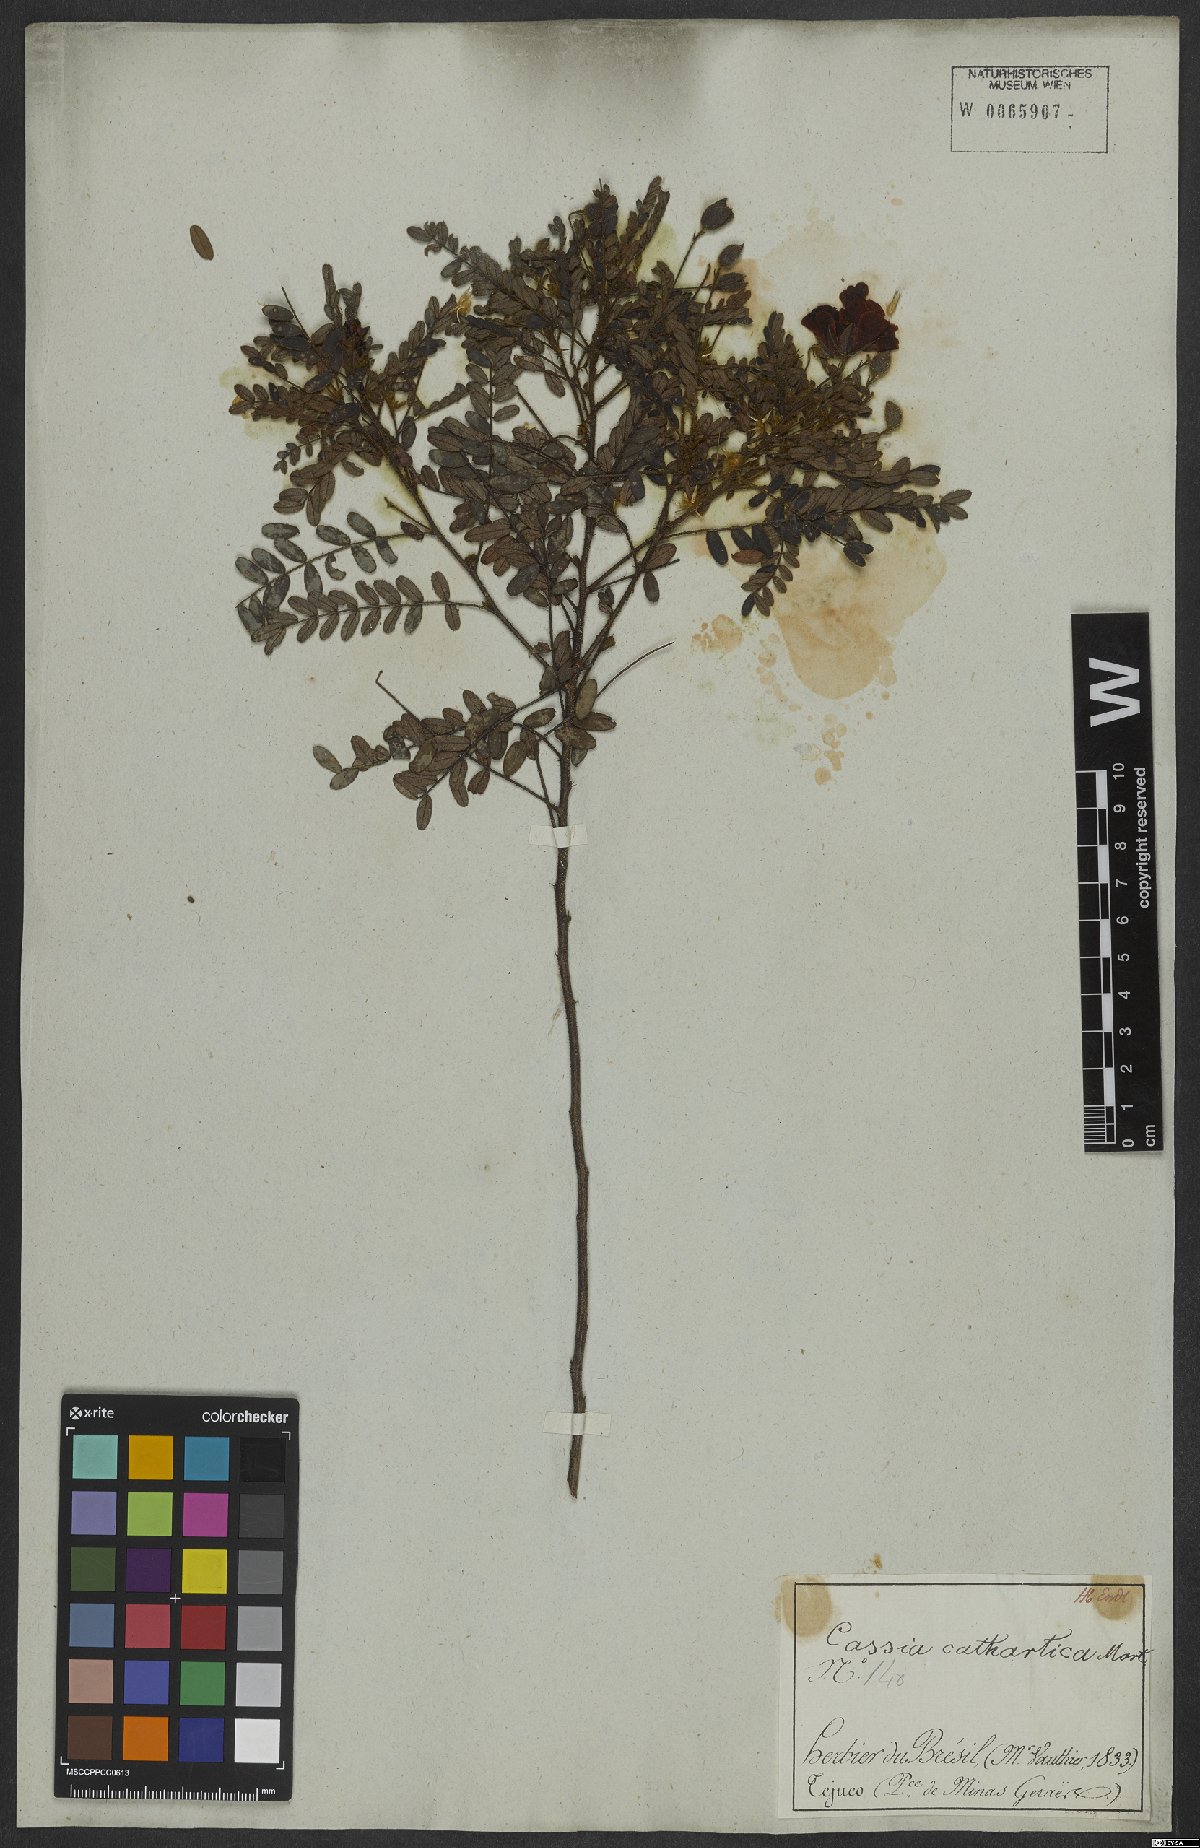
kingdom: Plantae
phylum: Tracheophyta
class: Magnoliopsida
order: Fabales
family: Fabaceae
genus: Chamaecrista
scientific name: Chamaecrista cathartica
